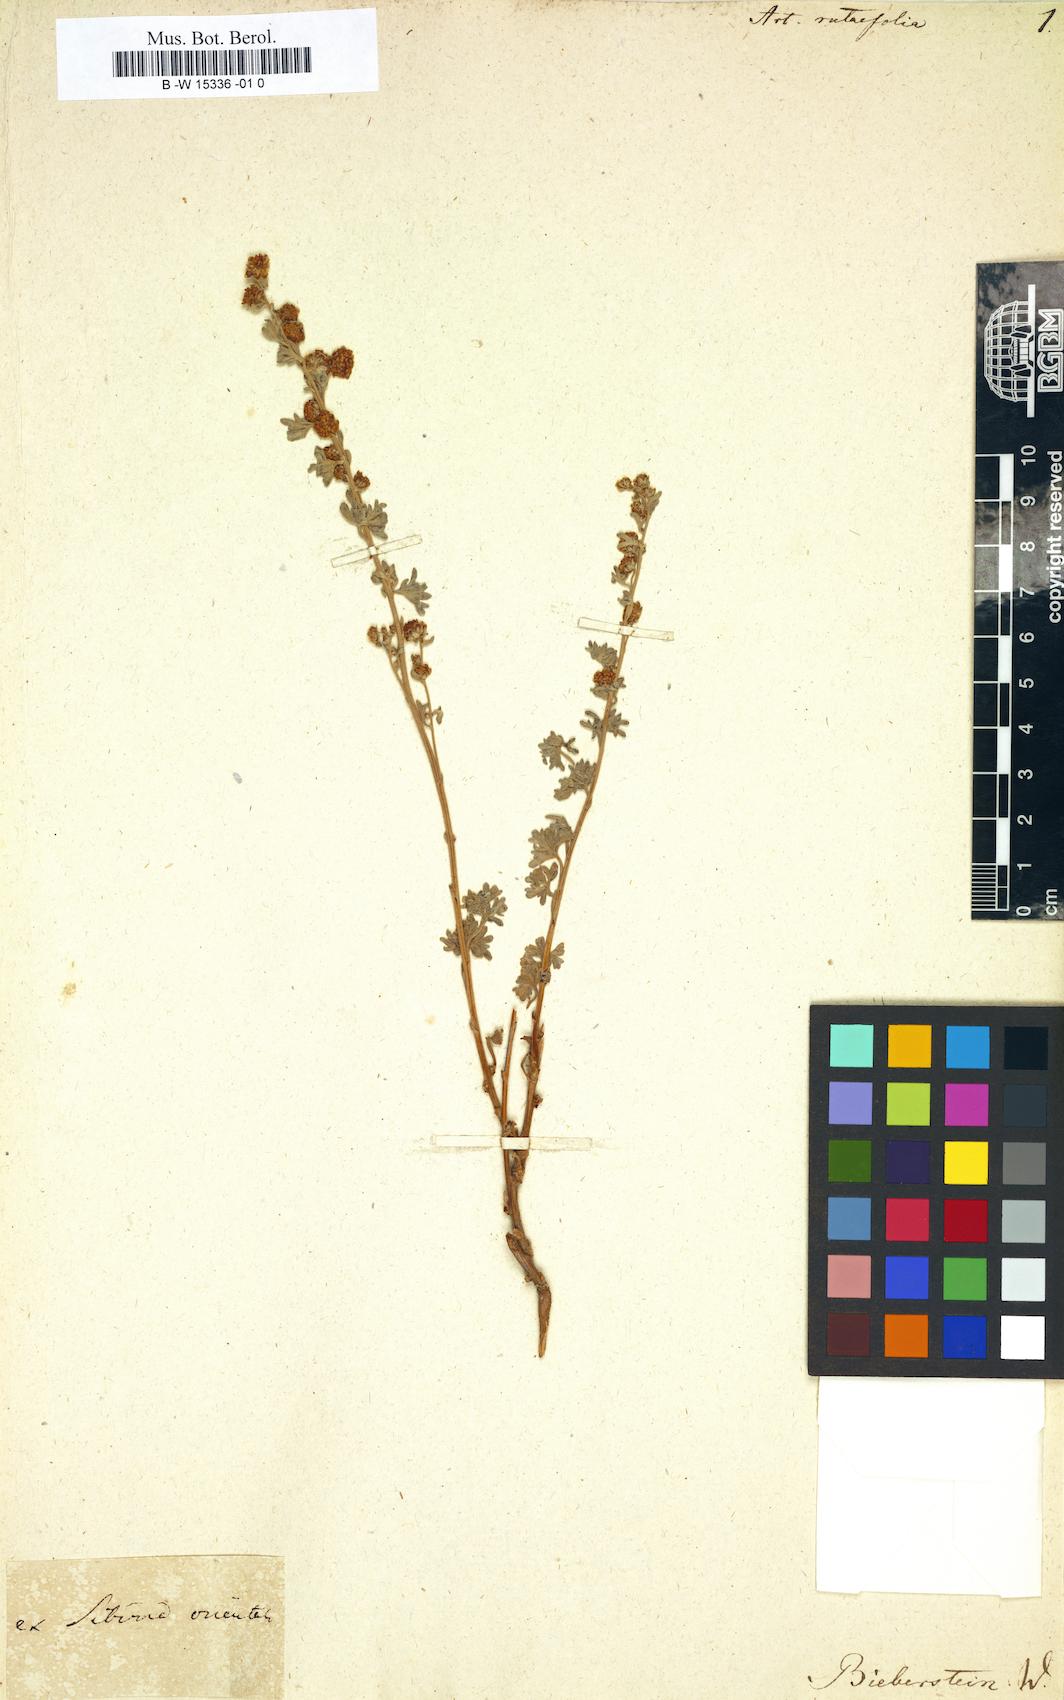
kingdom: Plantae
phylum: Tracheophyta
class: Magnoliopsida
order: Asterales
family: Asteraceae
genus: Artemisia
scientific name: Artemisia rutifolia
